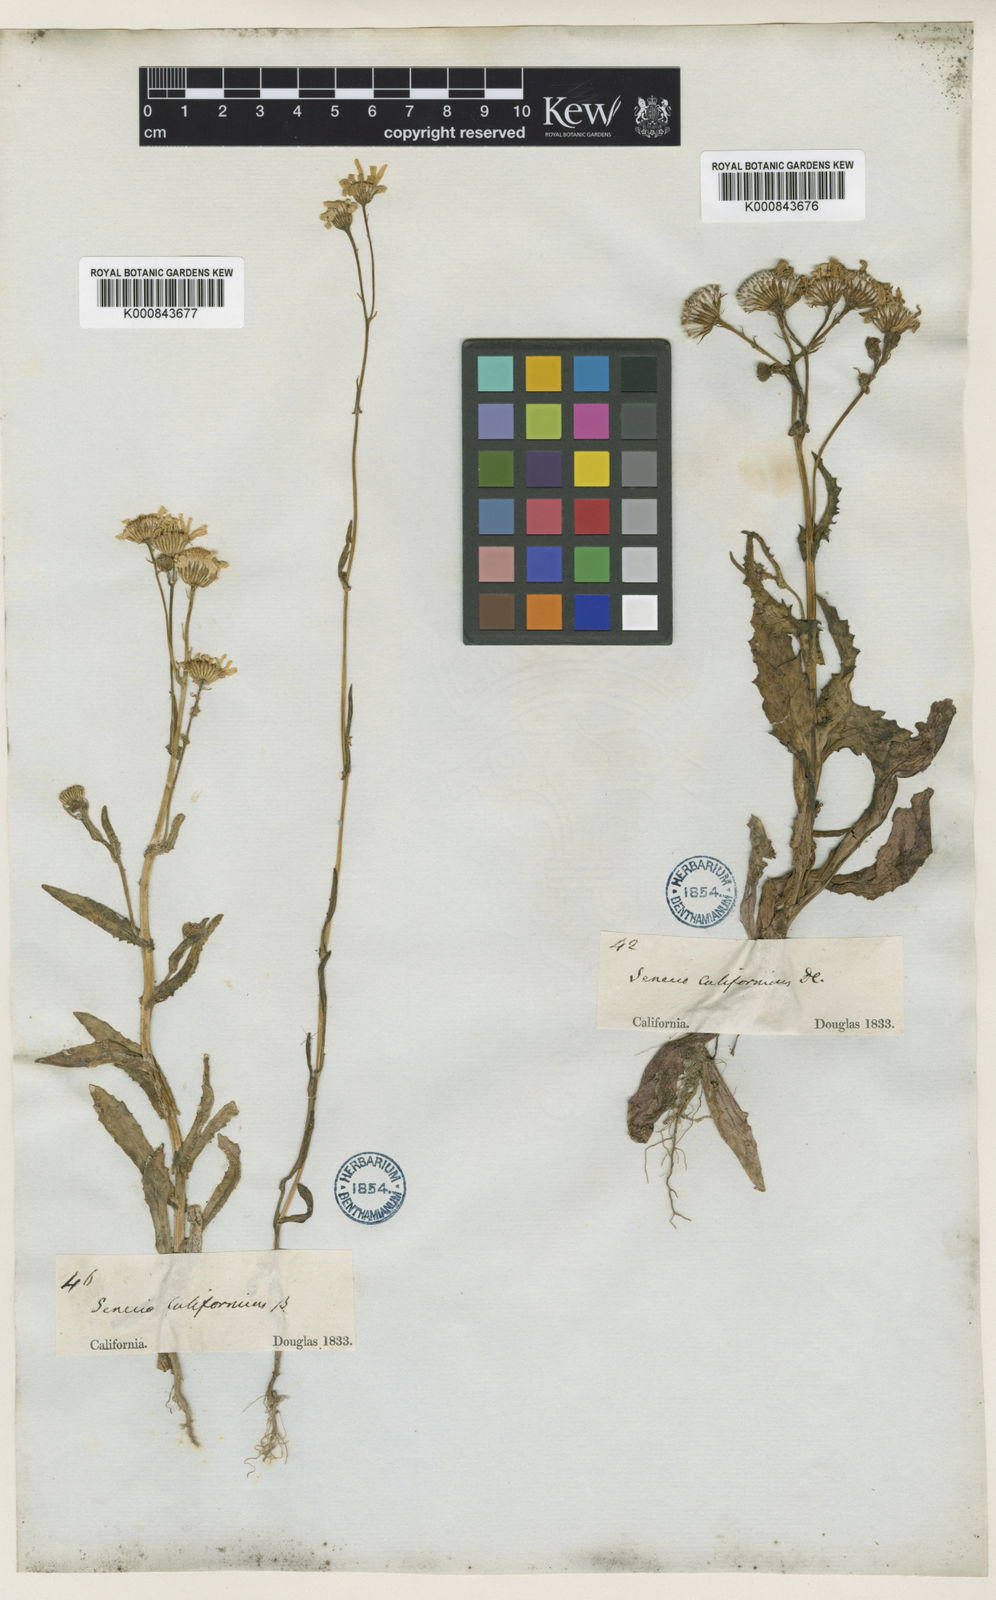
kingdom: Plantae
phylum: Tracheophyta
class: Magnoliopsida
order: Asterales
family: Asteraceae
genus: Senecio
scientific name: Senecio californicus
